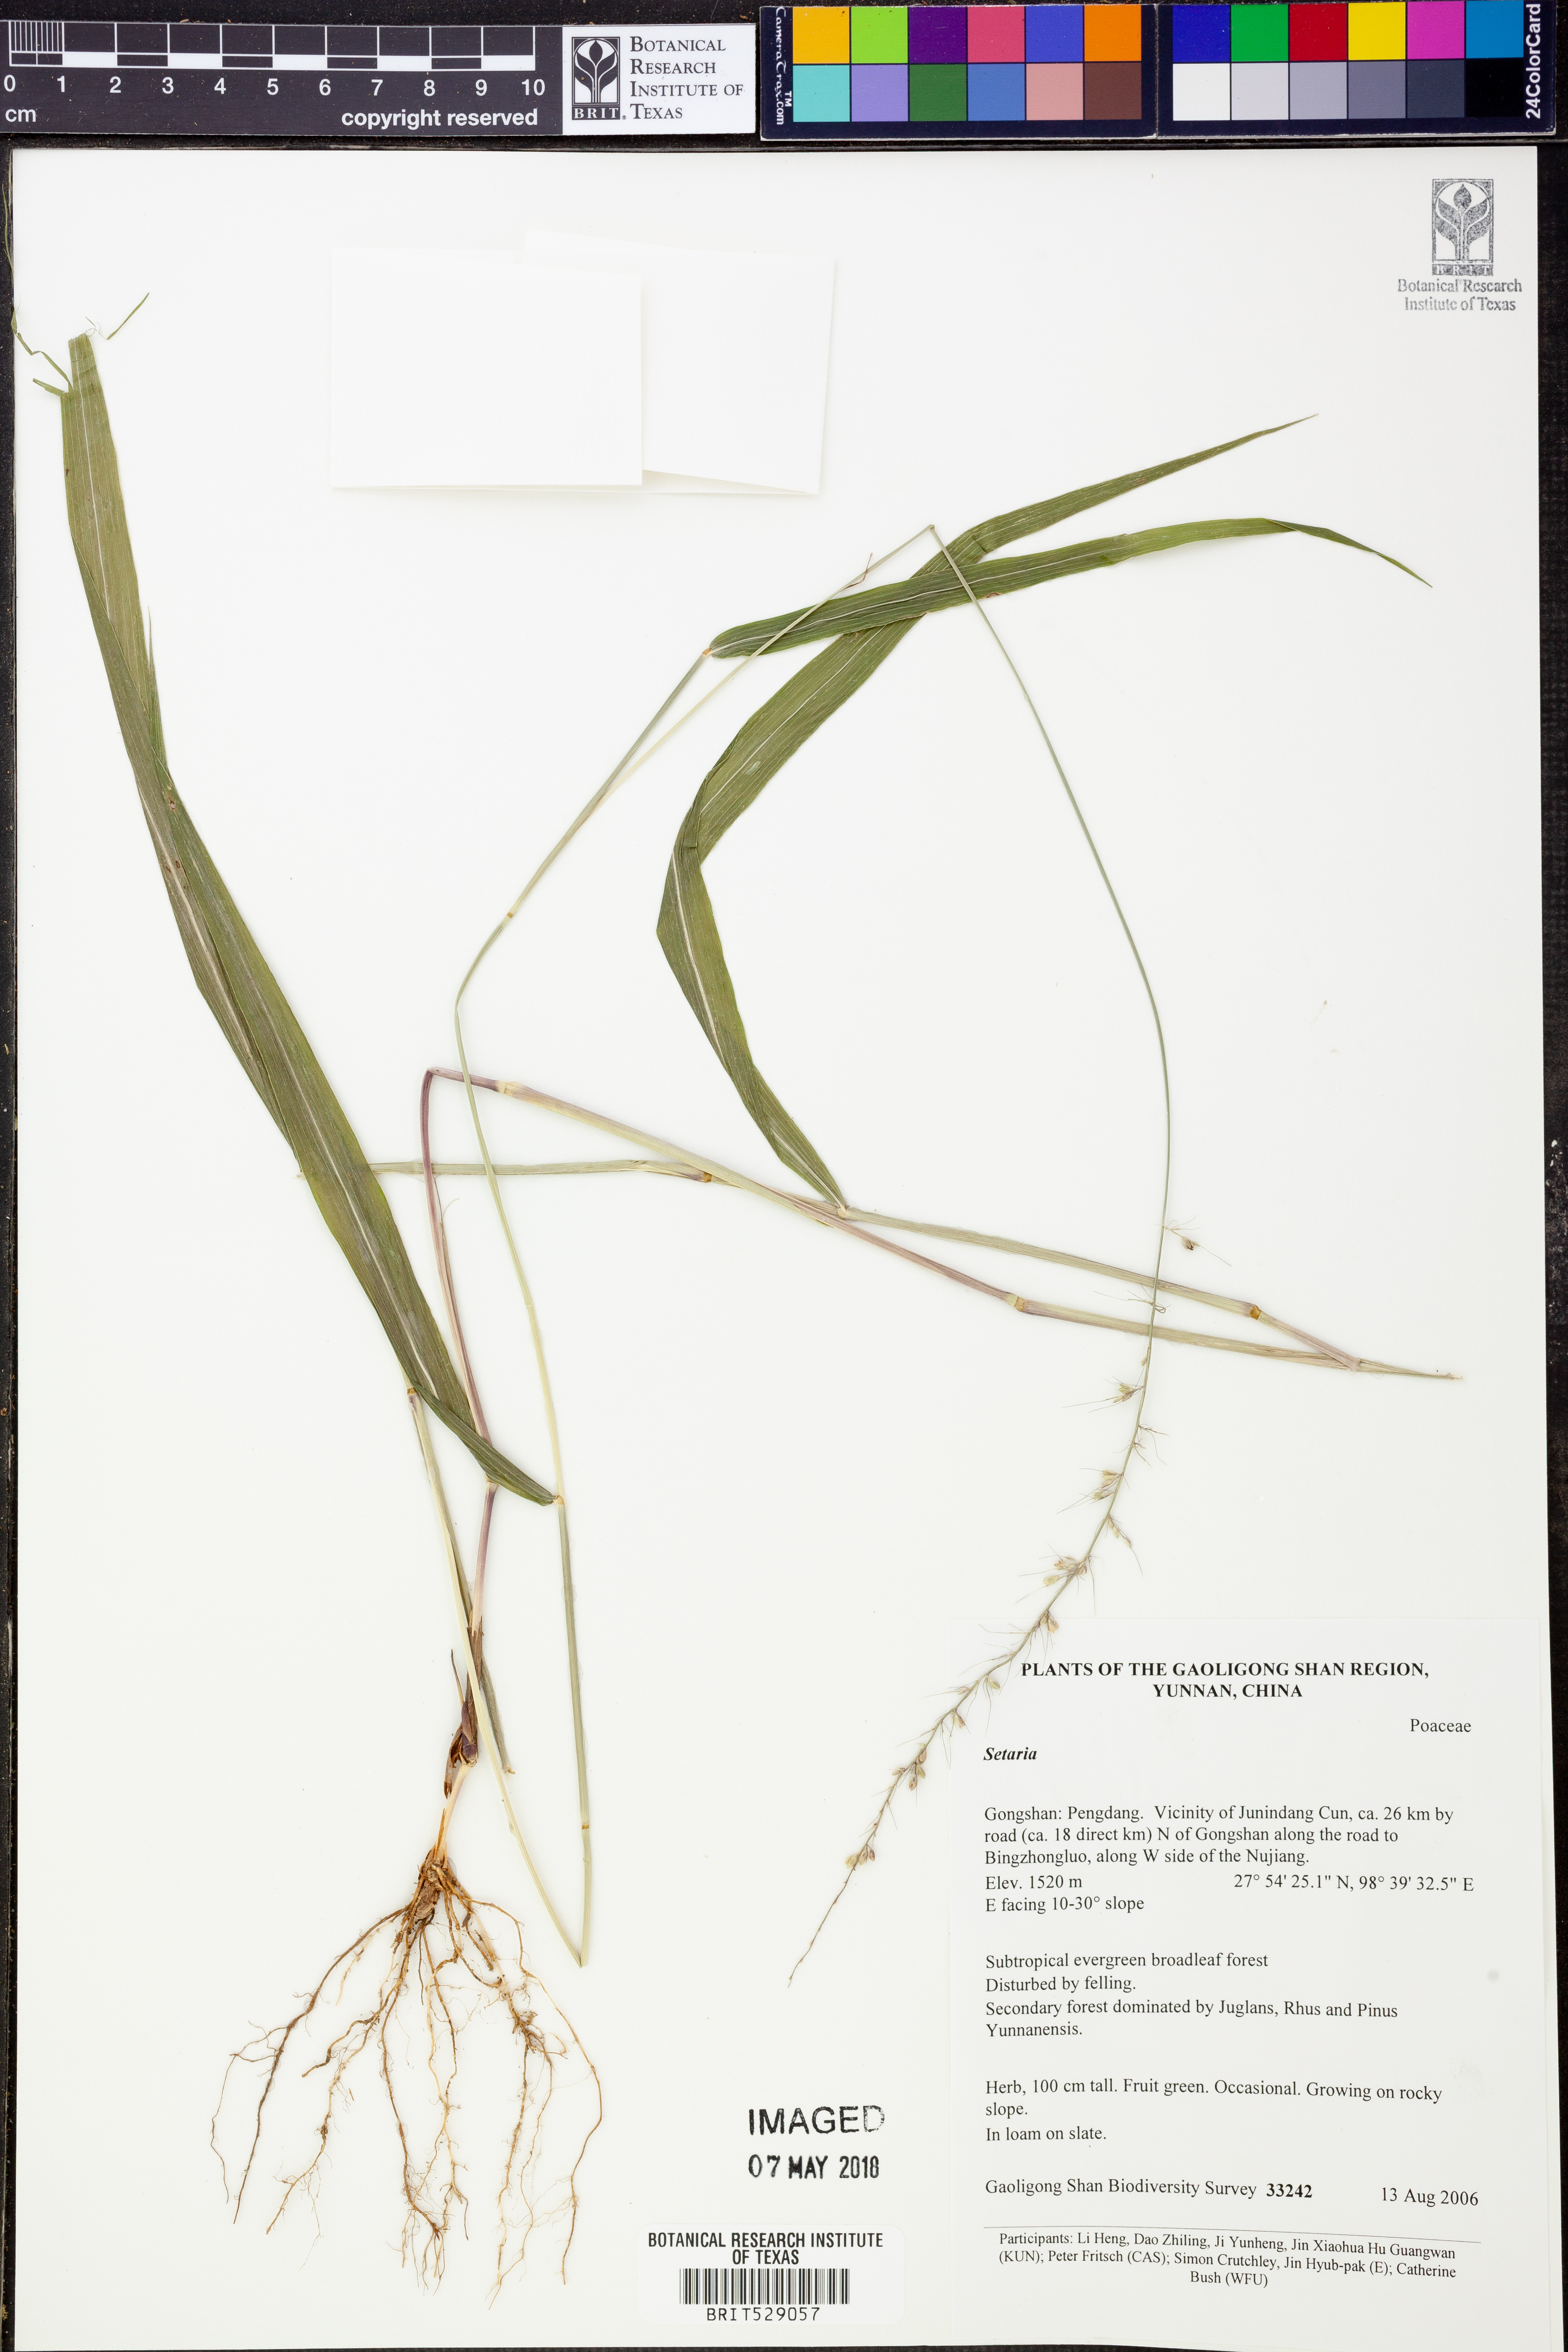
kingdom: Plantae
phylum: Tracheophyta
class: Liliopsida
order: Poales
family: Poaceae
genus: Setaria
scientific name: Setaria
